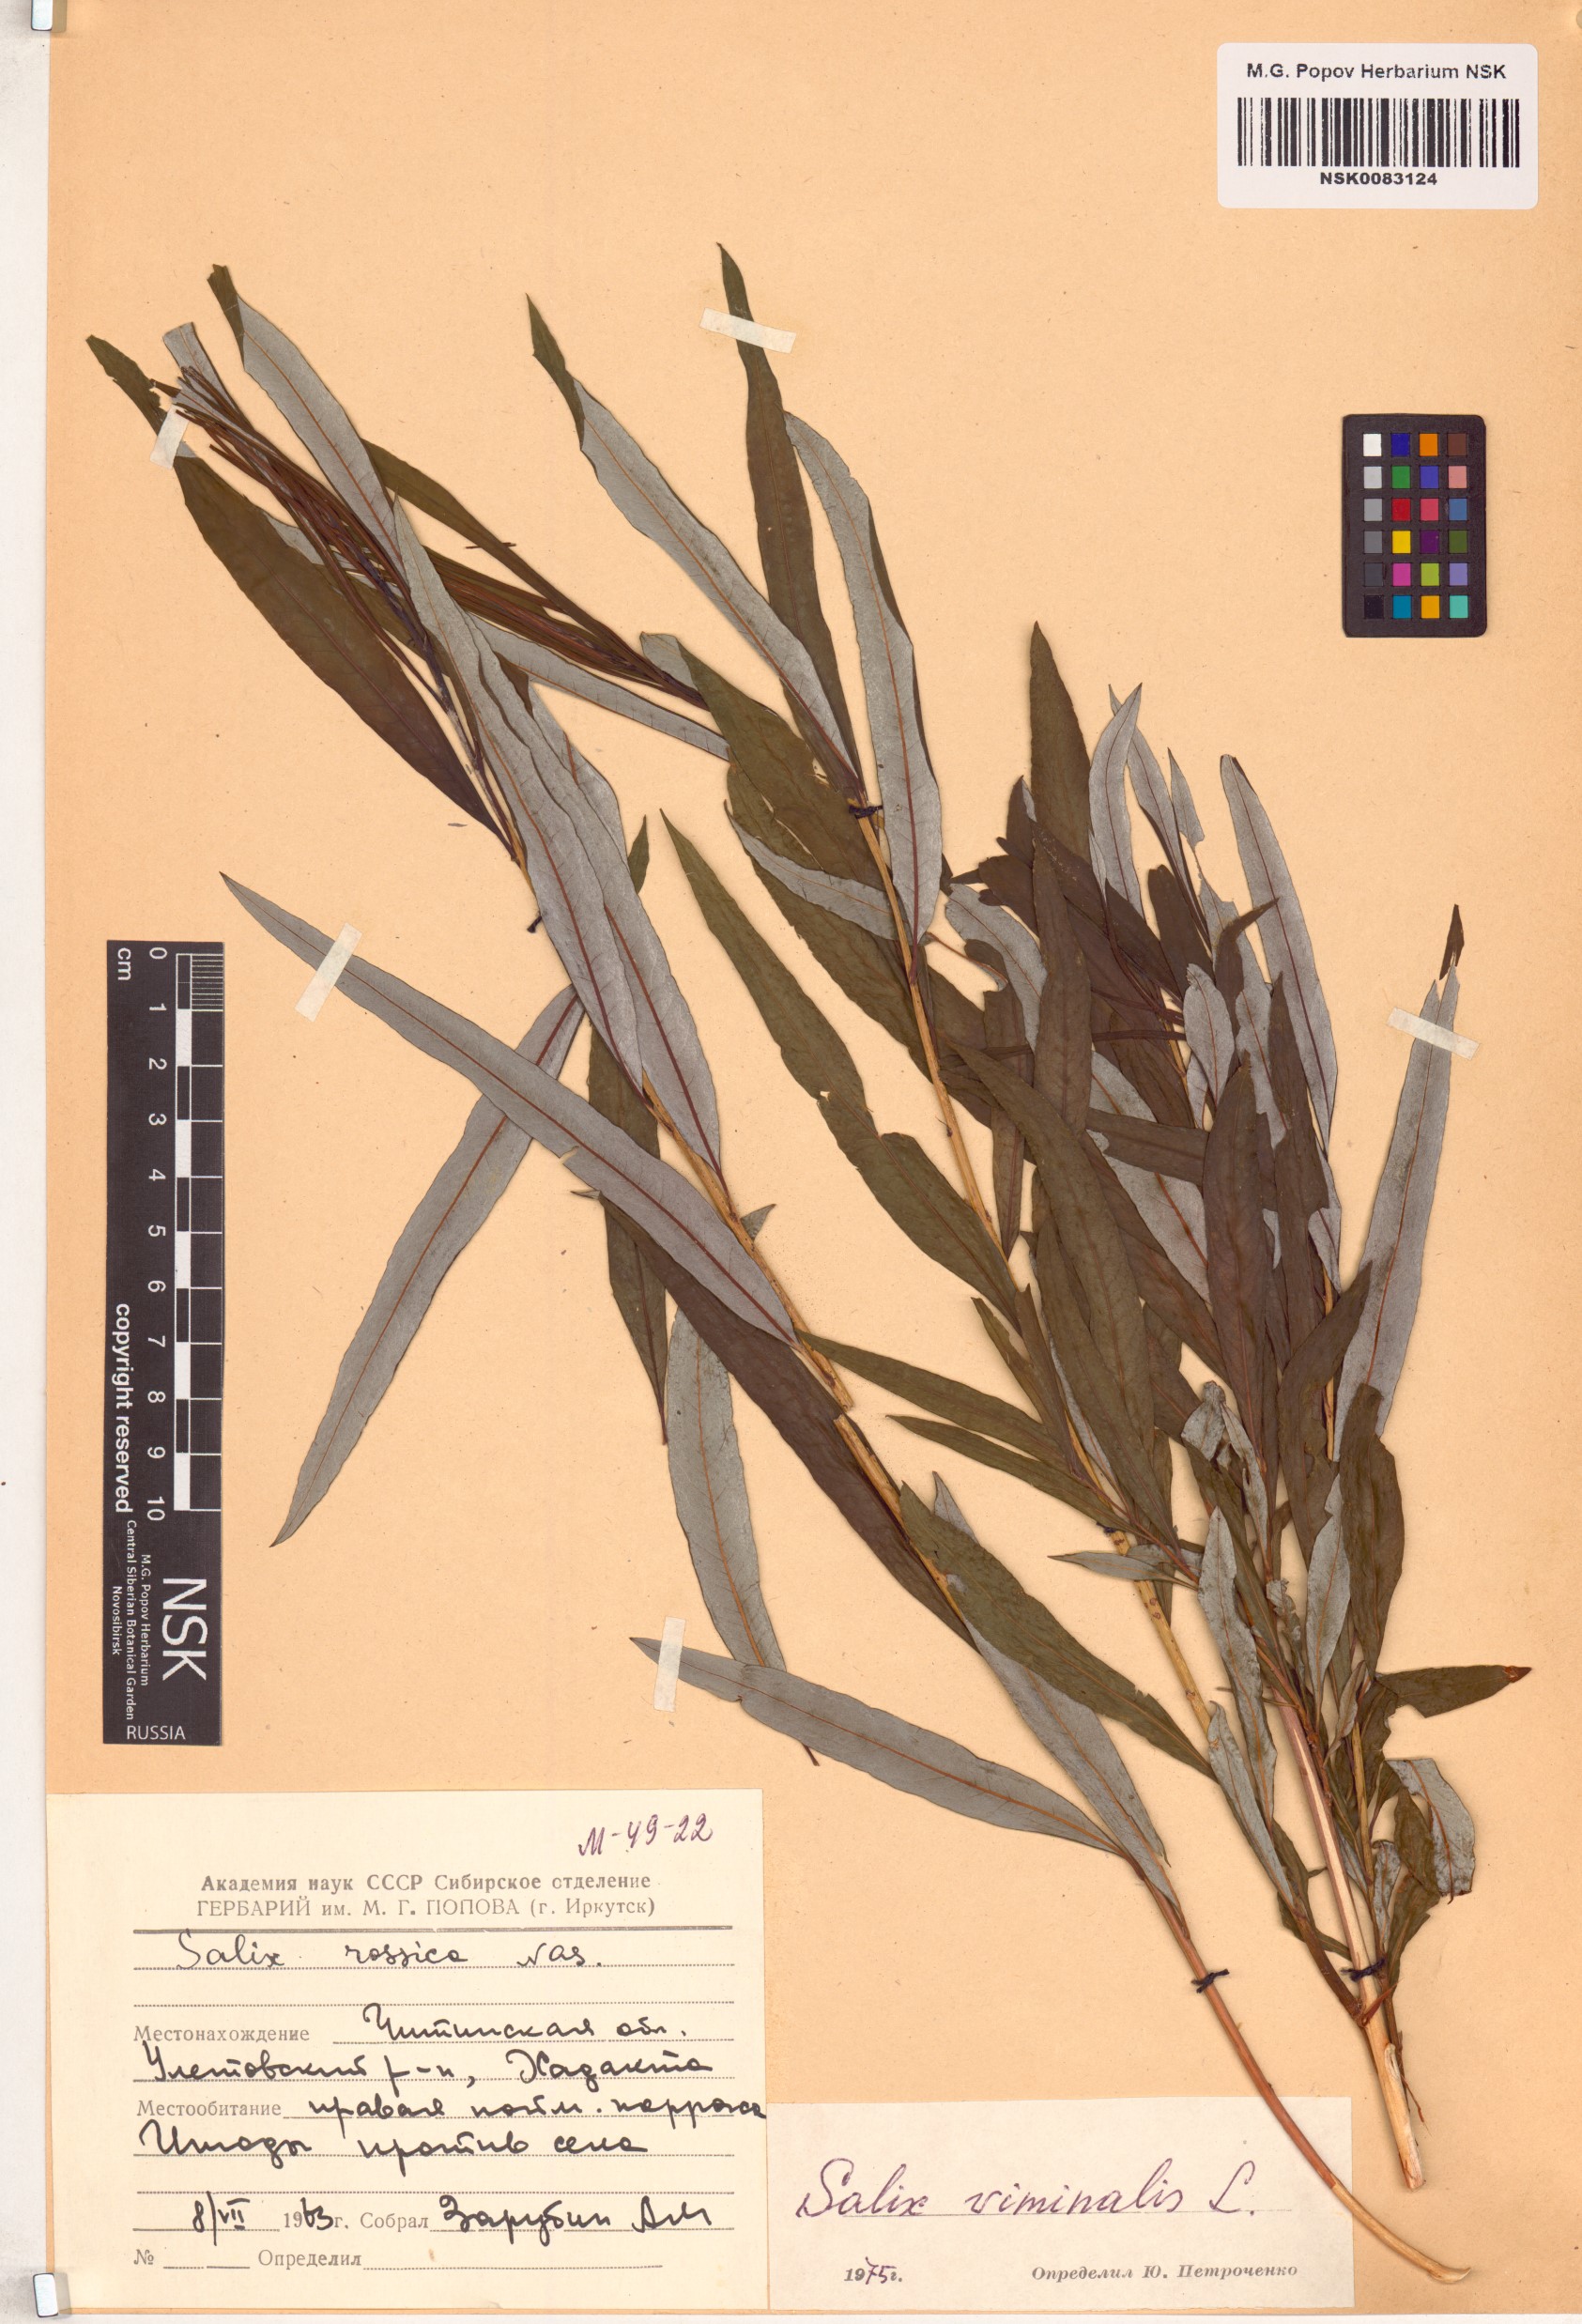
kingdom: Plantae
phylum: Tracheophyta
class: Magnoliopsida
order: Malpighiales
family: Salicaceae
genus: Salix
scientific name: Salix viminalis
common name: Osier
